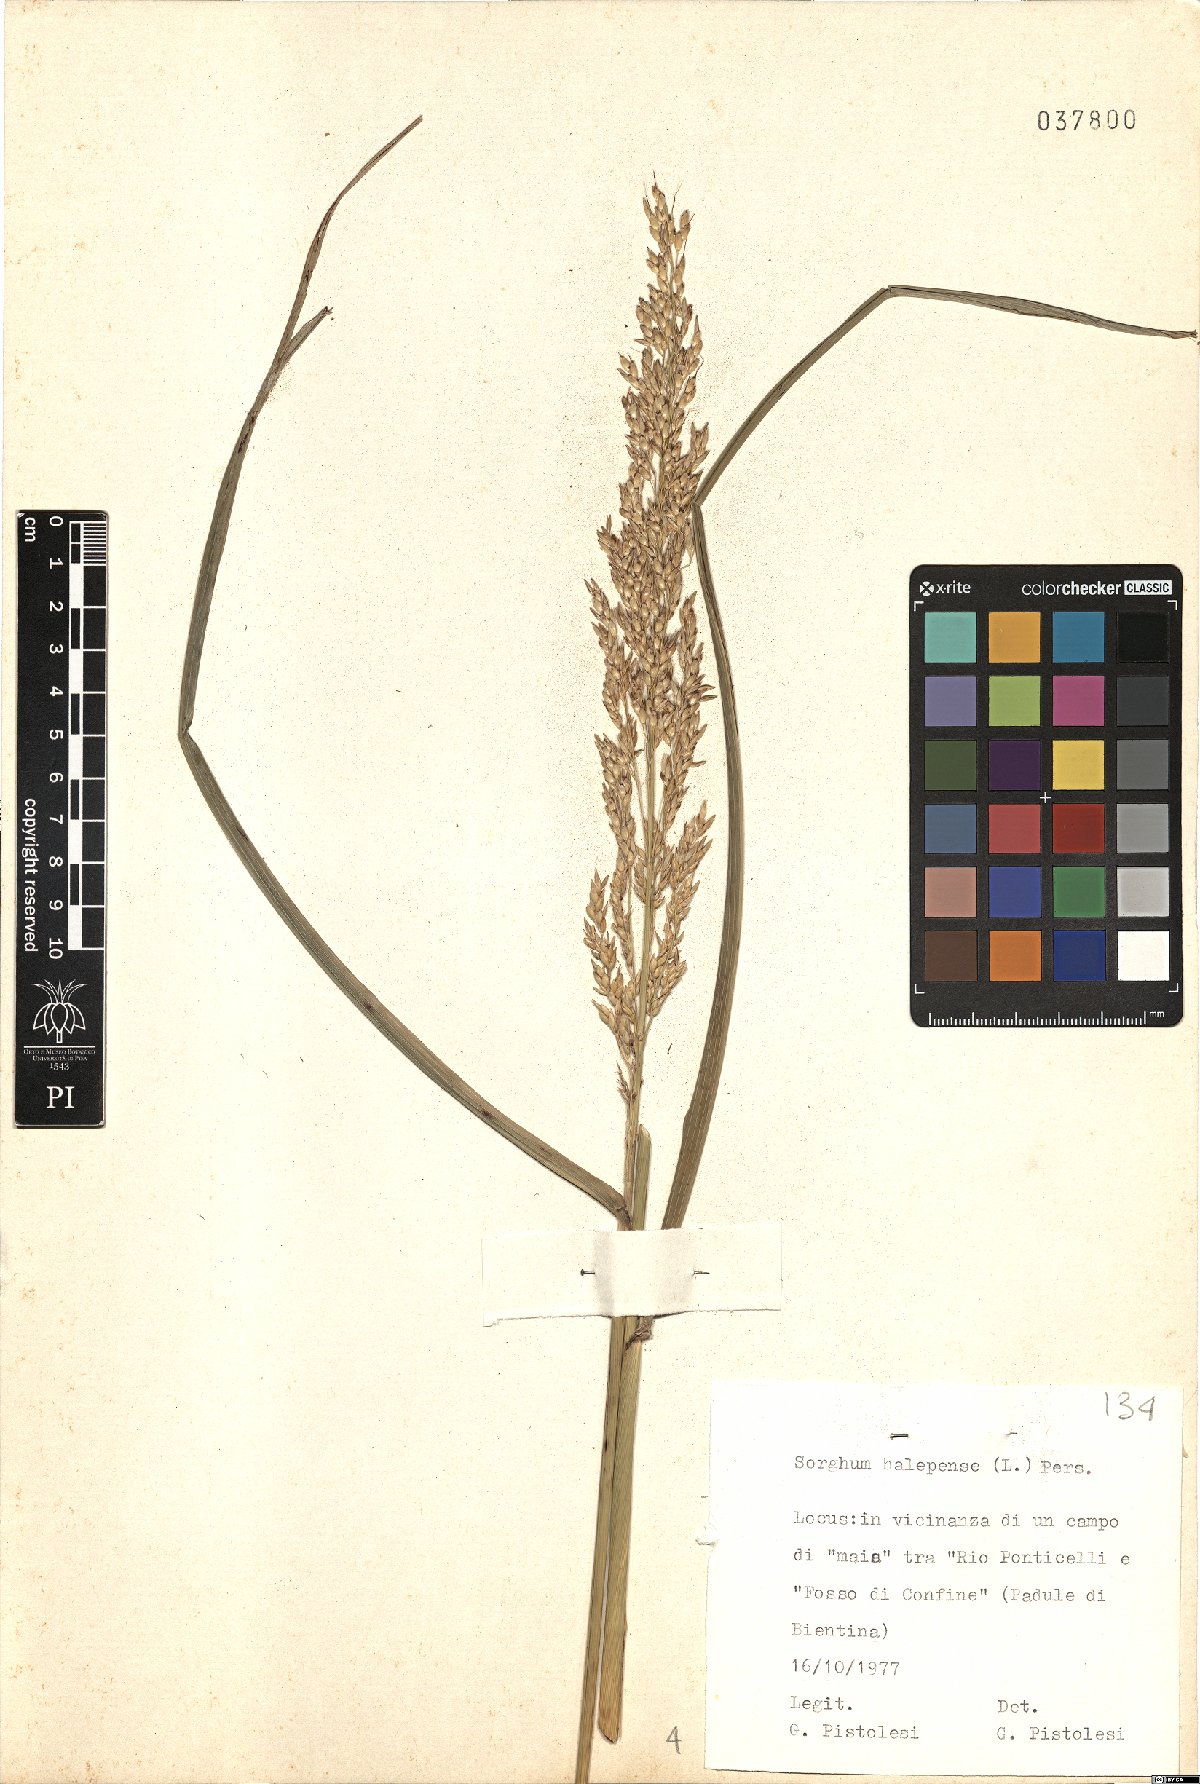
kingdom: Plantae
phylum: Tracheophyta
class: Liliopsida
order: Poales
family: Poaceae
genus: Sorghum
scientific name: Sorghum halepense
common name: Johnson-grass
